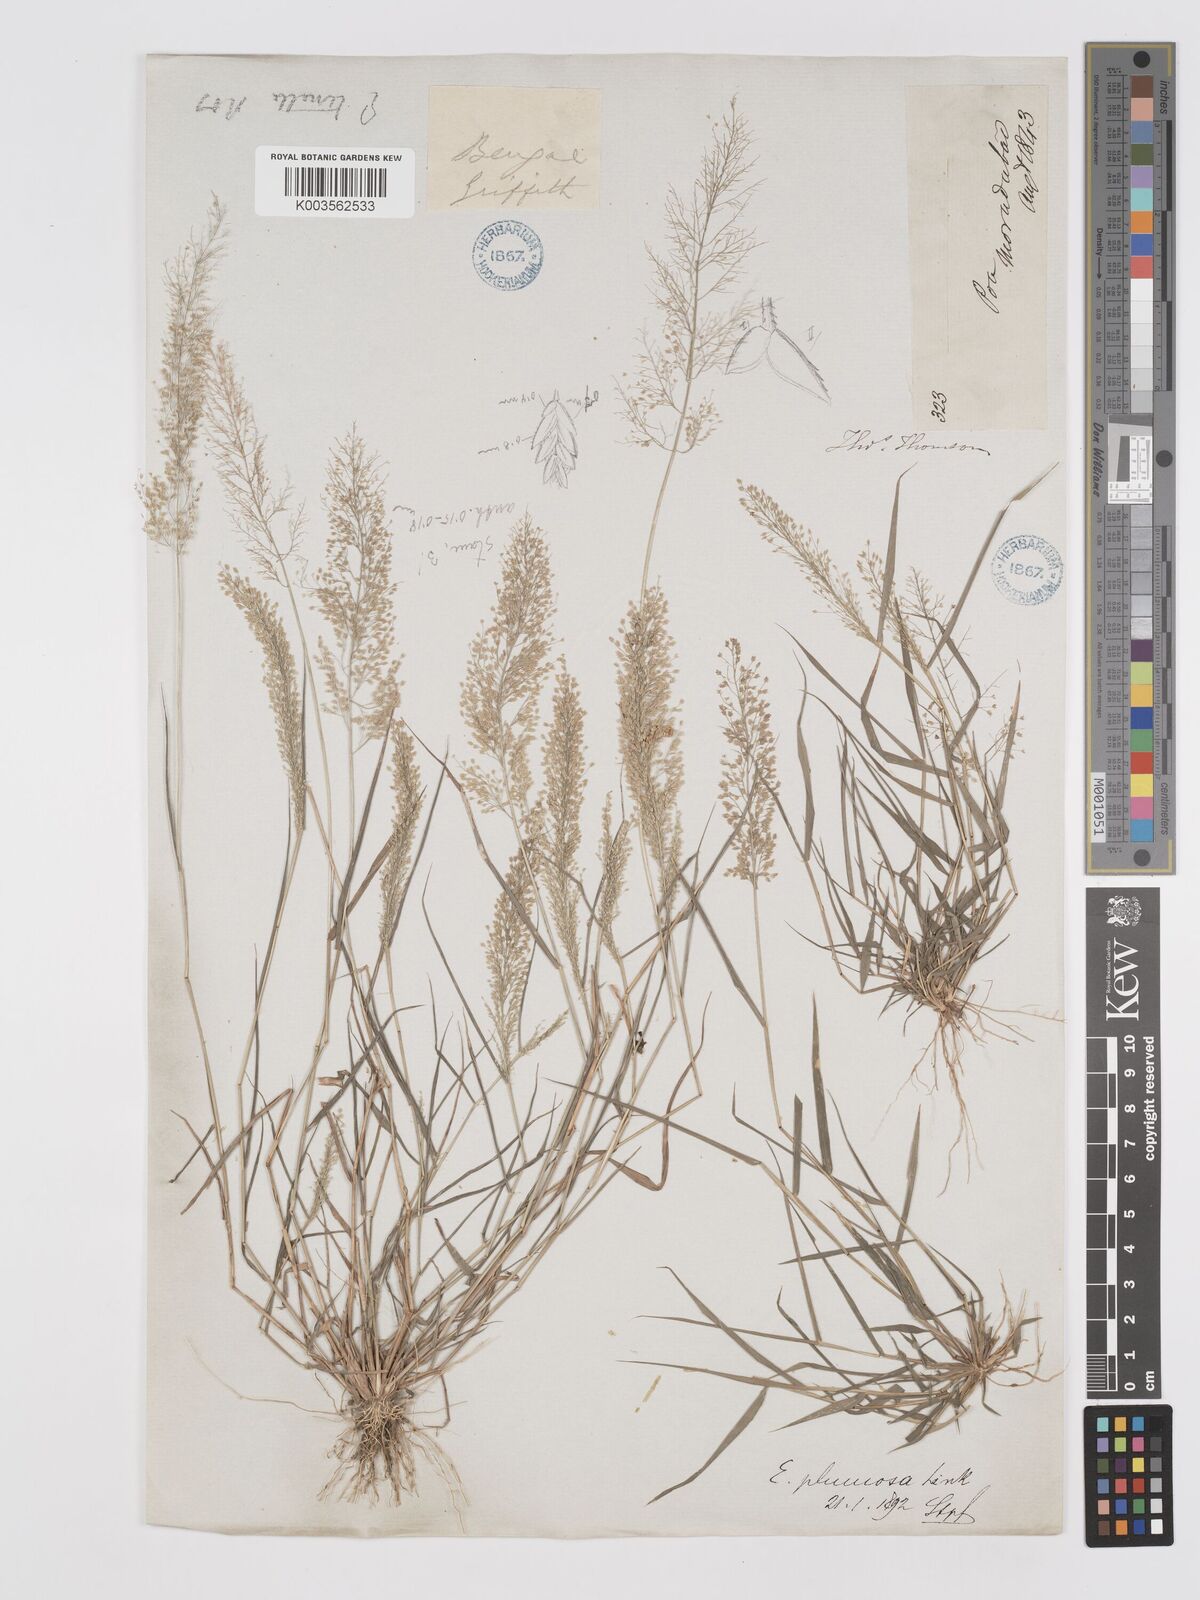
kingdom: Plantae
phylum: Tracheophyta
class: Liliopsida
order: Poales
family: Poaceae
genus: Eragrostis
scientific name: Eragrostis tenella
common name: Japanese lovegrass
